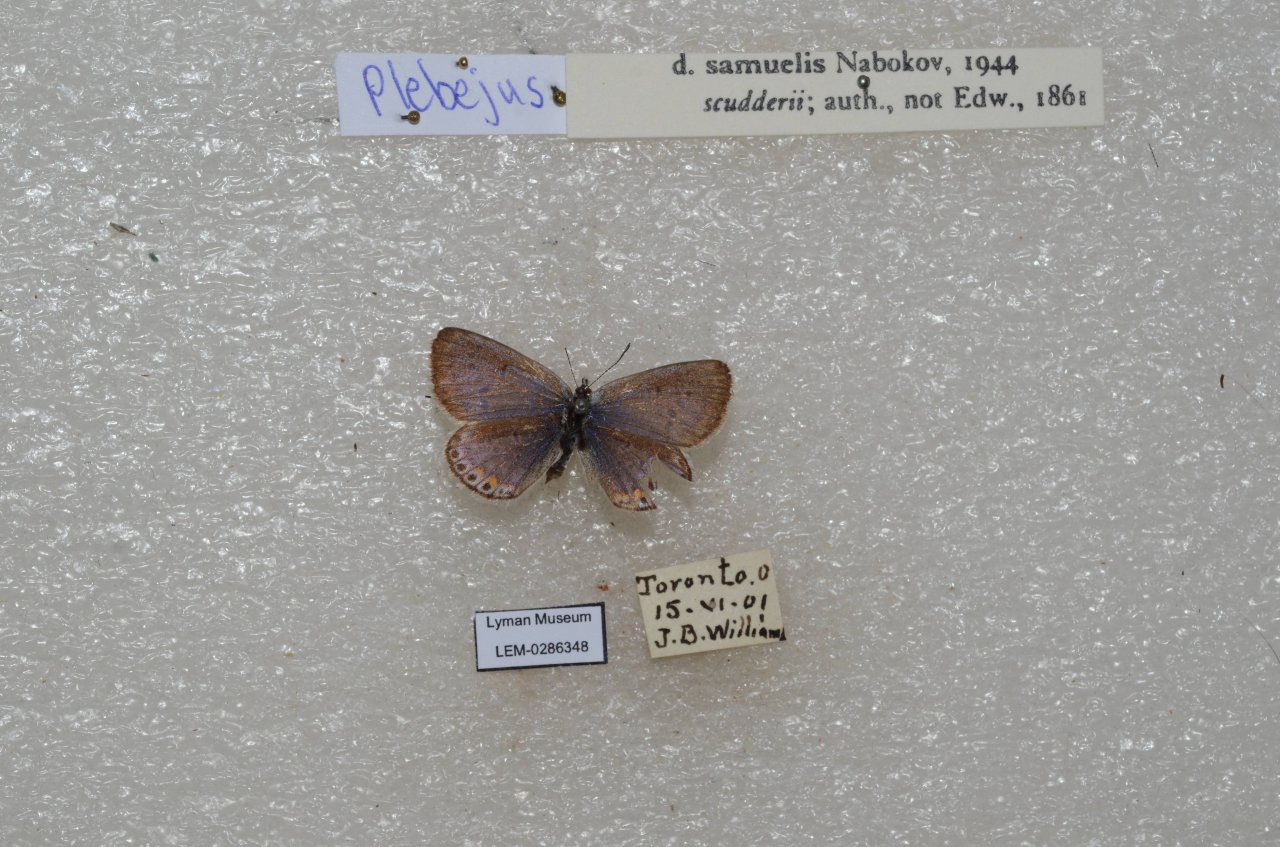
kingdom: Animalia
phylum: Arthropoda
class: Insecta
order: Lepidoptera
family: Lycaenidae
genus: Plebejus
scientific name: Plebejus samuelis
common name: Karner Blue
